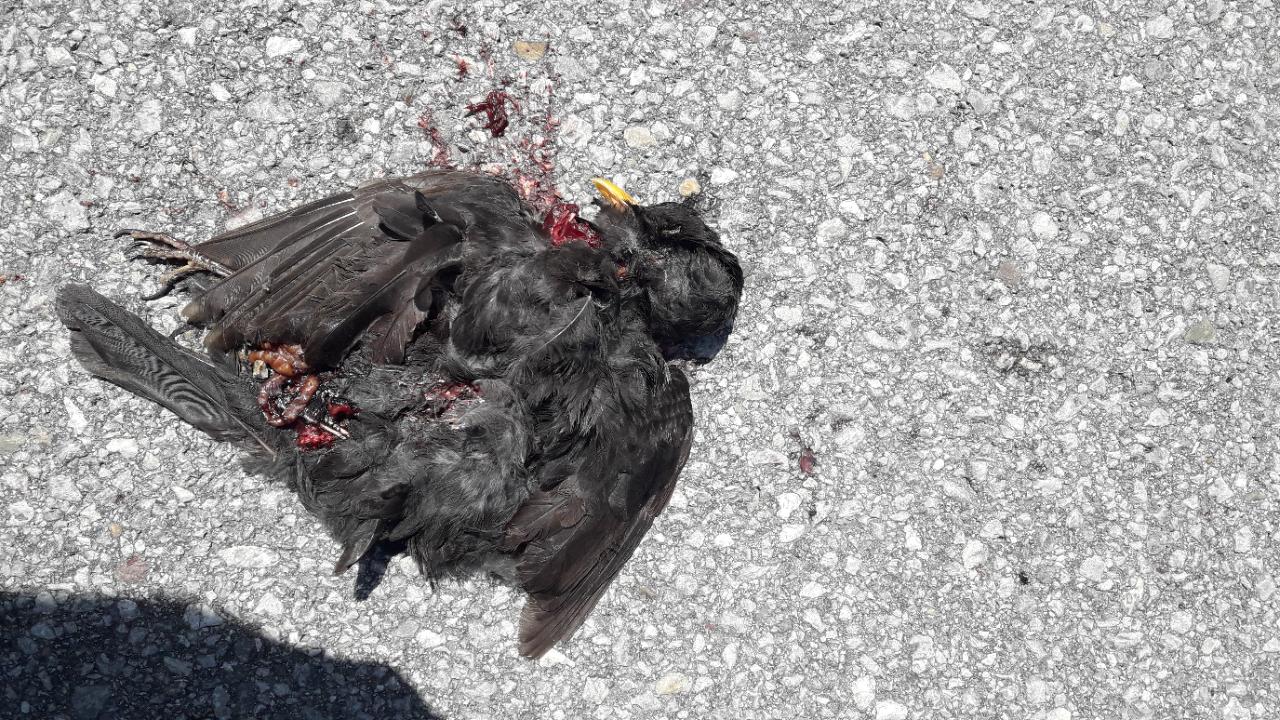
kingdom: Animalia
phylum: Chordata
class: Aves
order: Passeriformes
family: Turdidae
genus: Turdus
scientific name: Turdus merula
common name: Common blackbird
